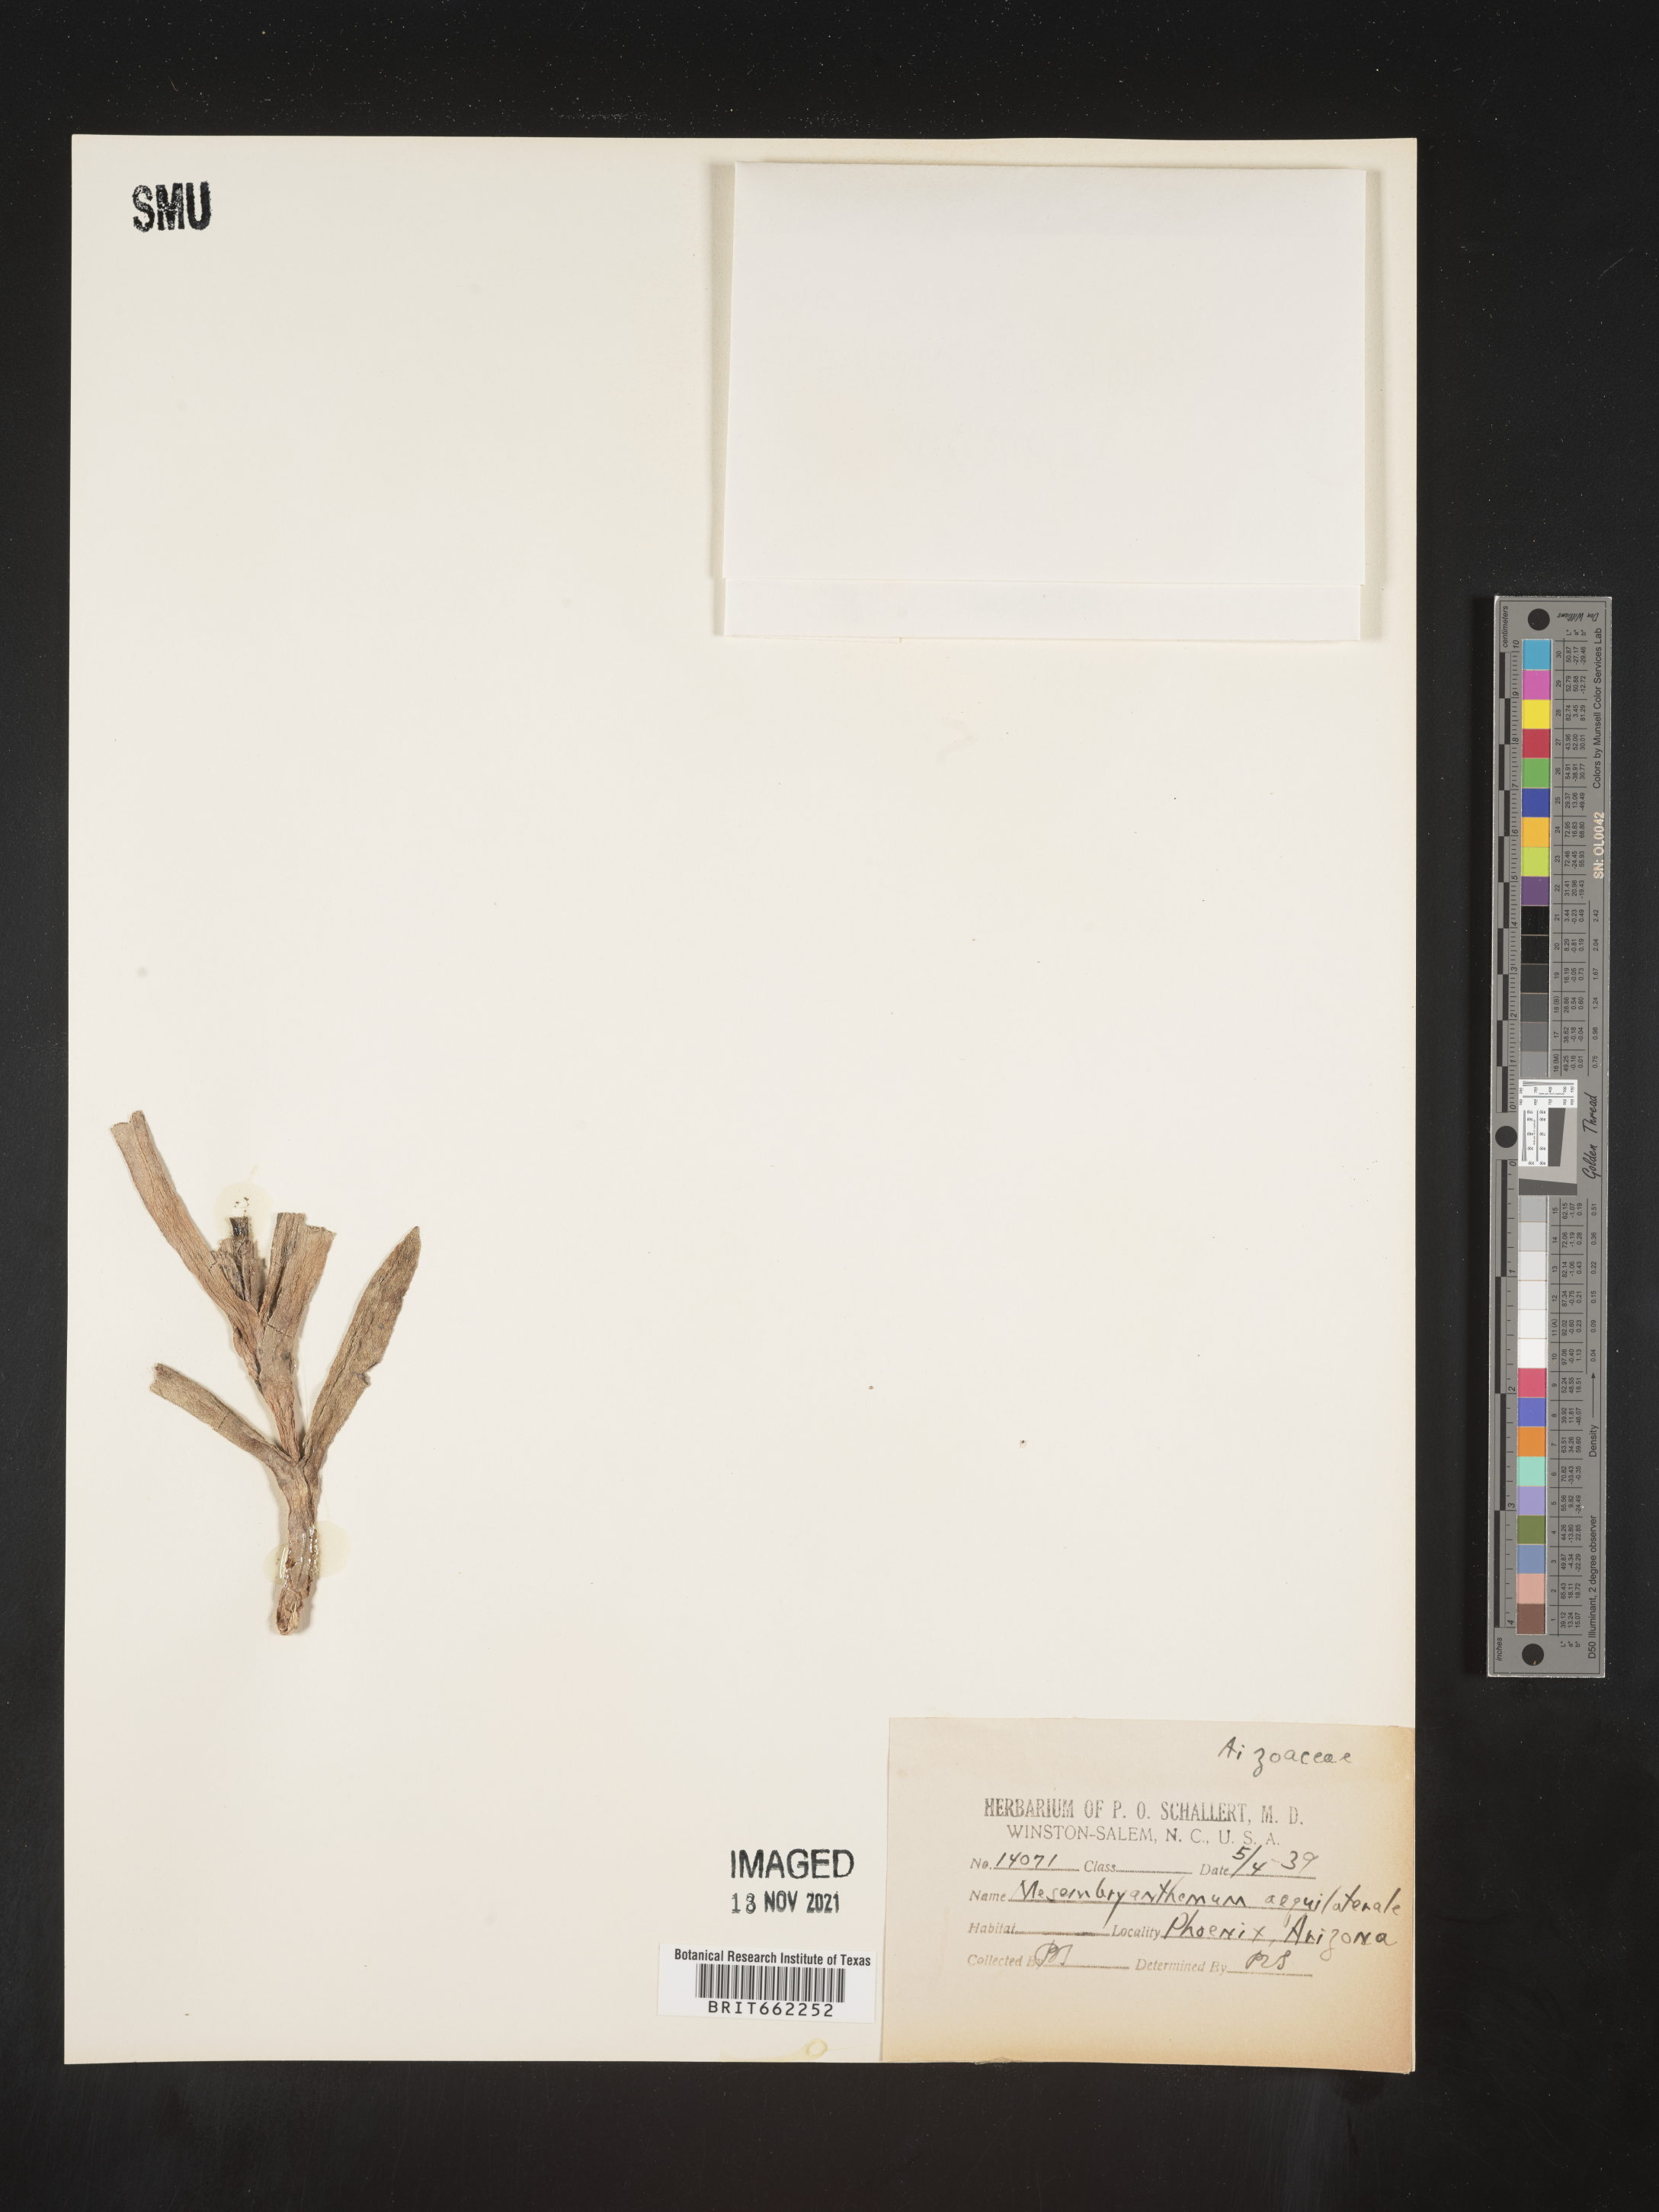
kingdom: Plantae
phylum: Tracheophyta
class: Magnoliopsida
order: Caryophyllales
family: Aizoaceae
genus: Mesembryanthemum
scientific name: Mesembryanthemum
